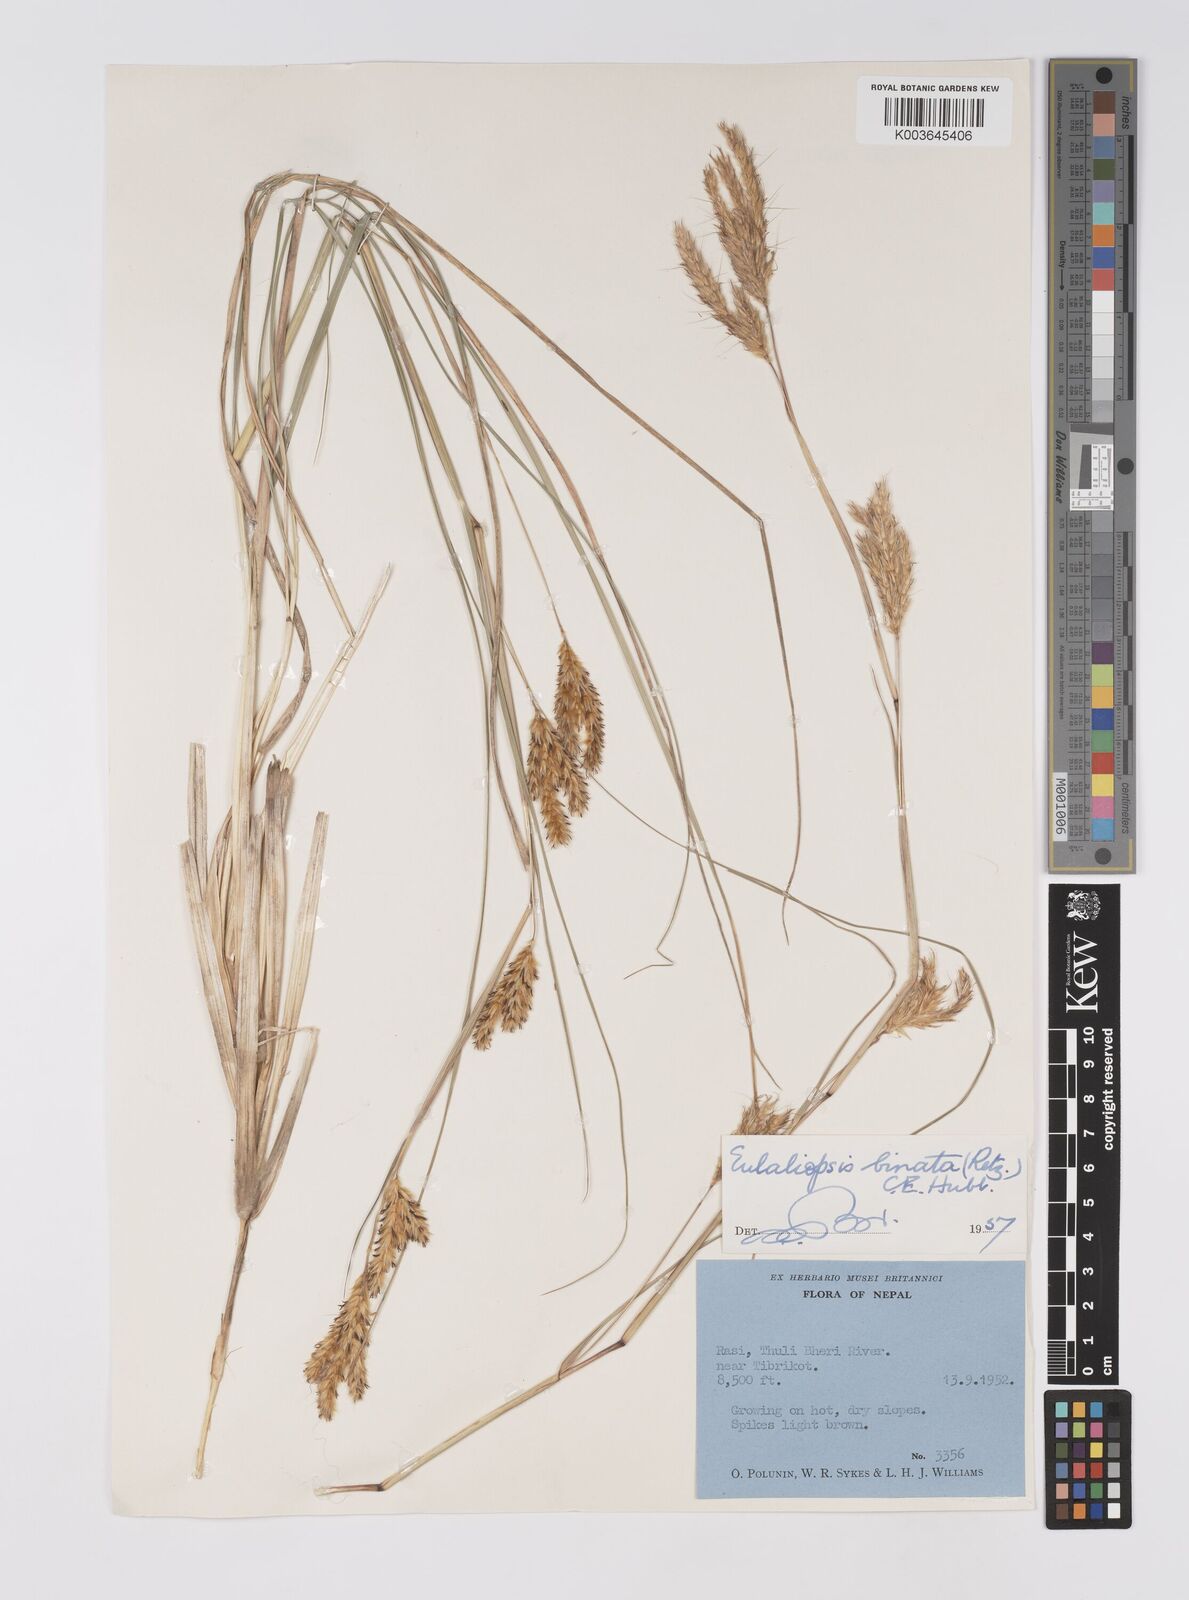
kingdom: Plantae
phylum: Tracheophyta
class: Liliopsida
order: Poales
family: Poaceae
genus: Eulaliopsis
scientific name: Eulaliopsis binata
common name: Baib grass
